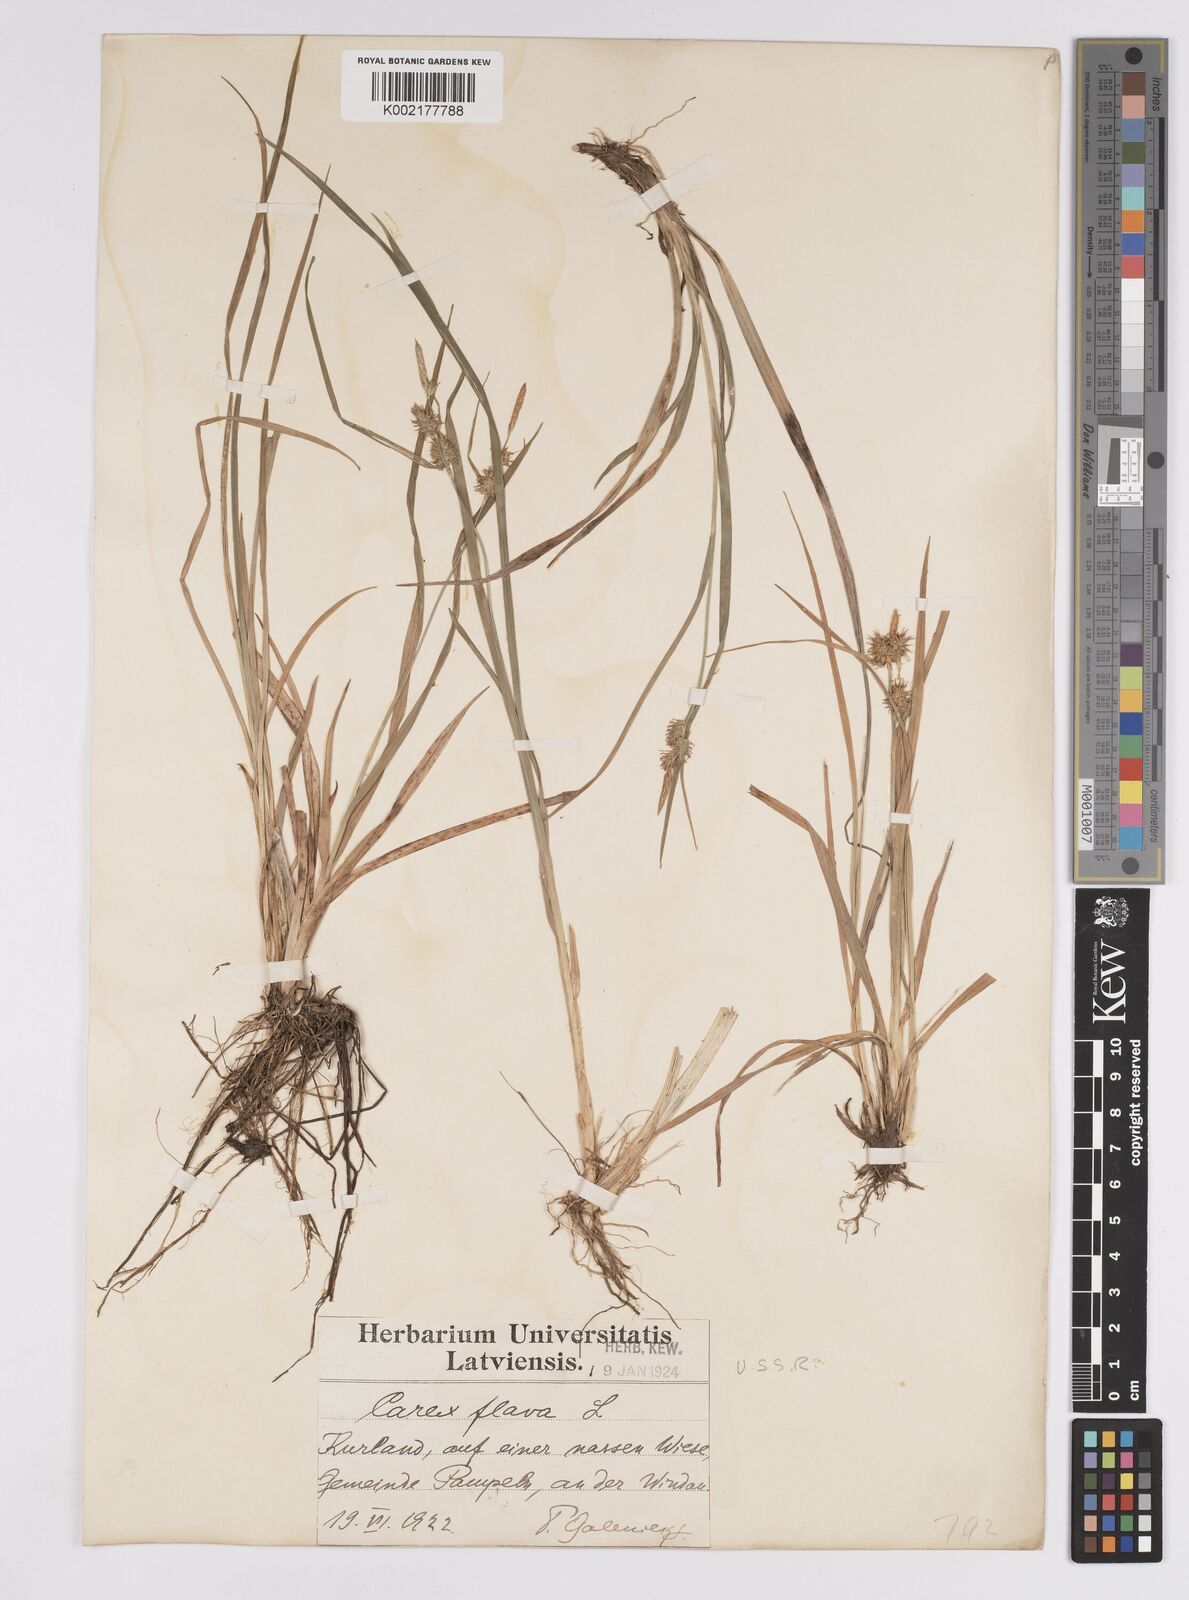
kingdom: Plantae
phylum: Tracheophyta
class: Liliopsida
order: Poales
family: Cyperaceae
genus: Carex
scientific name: Carex flava
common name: Large yellow-sedge
